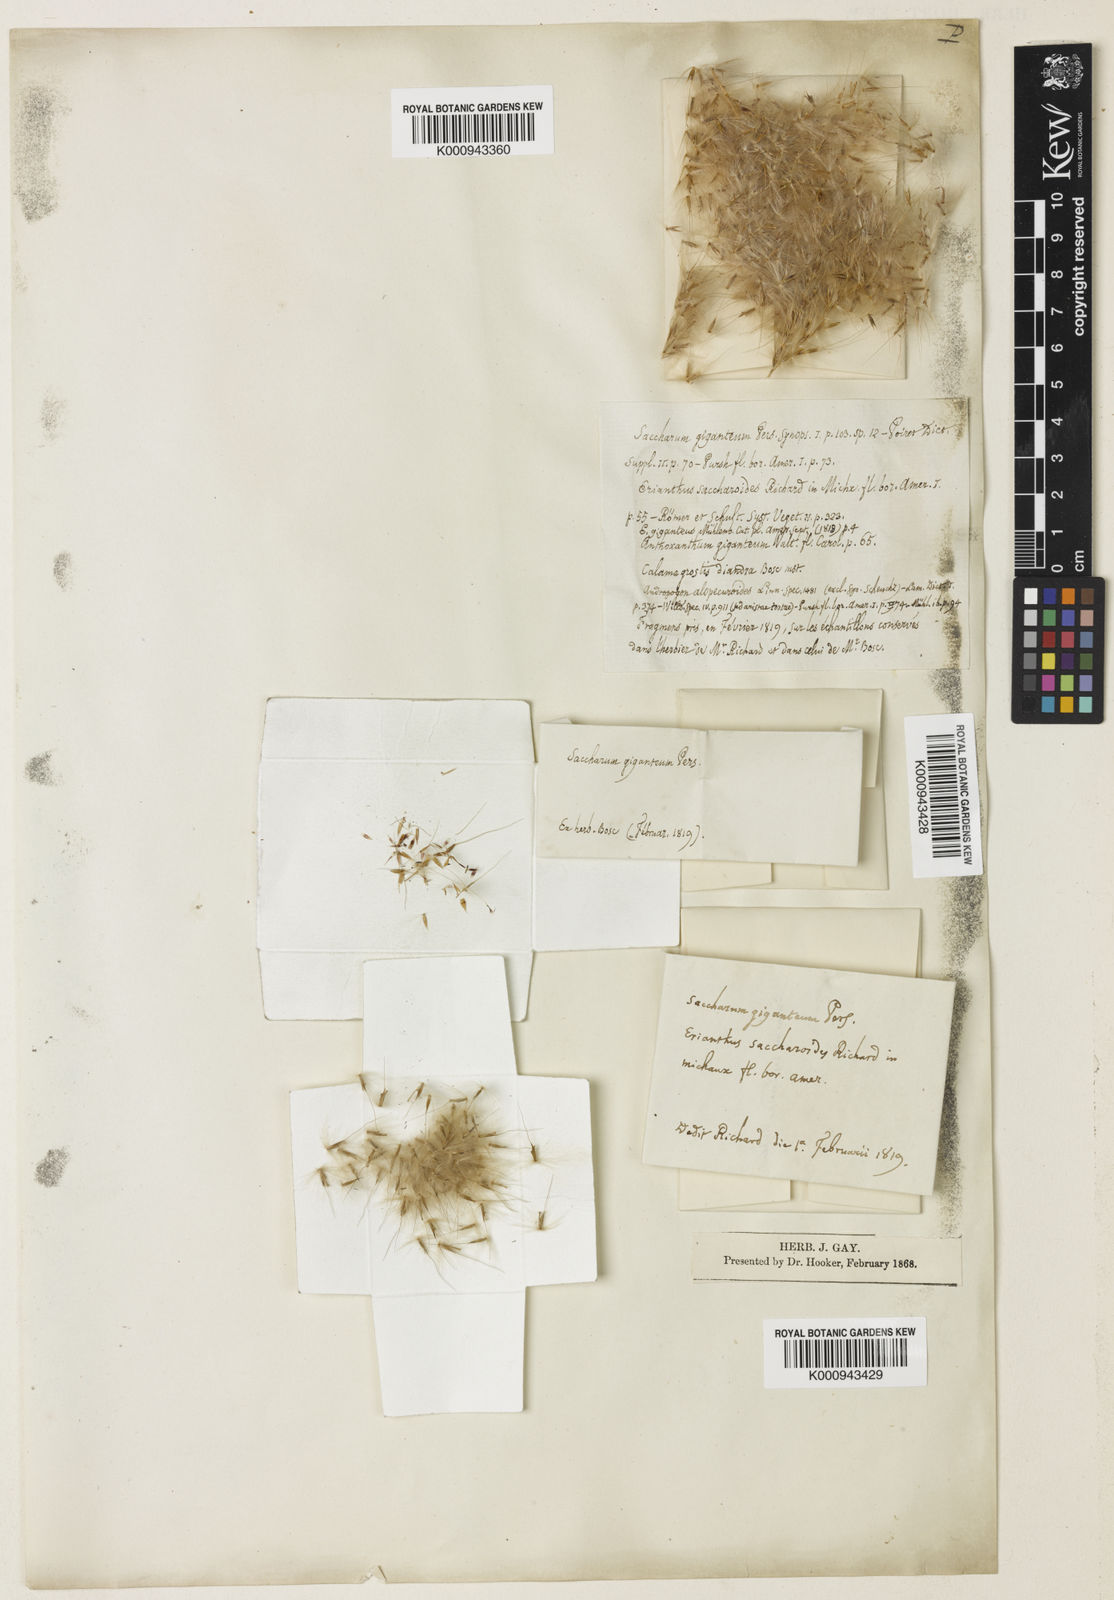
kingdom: Plantae
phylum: Tracheophyta
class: Liliopsida
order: Poales
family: Poaceae
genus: Saccharum
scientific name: Saccharum
